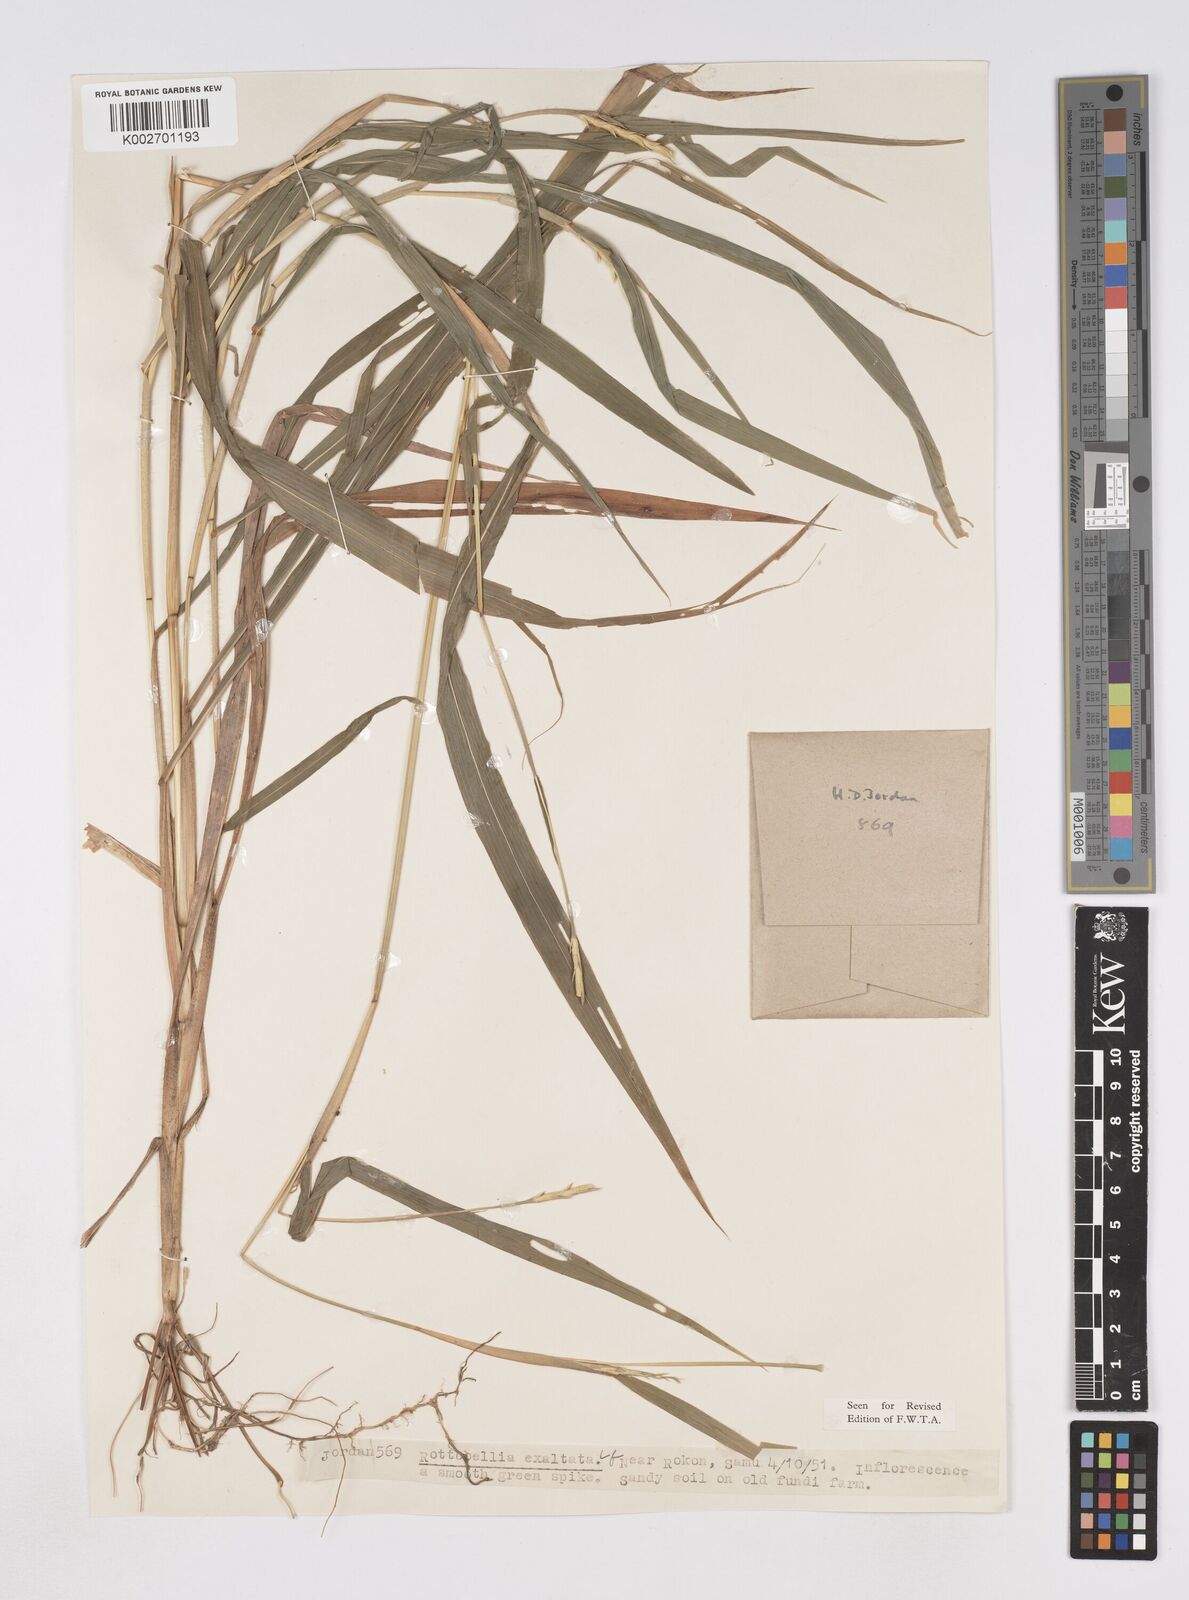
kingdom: Plantae
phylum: Tracheophyta
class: Liliopsida
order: Poales
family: Poaceae
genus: Ophiuros
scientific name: Ophiuros exaltatus
